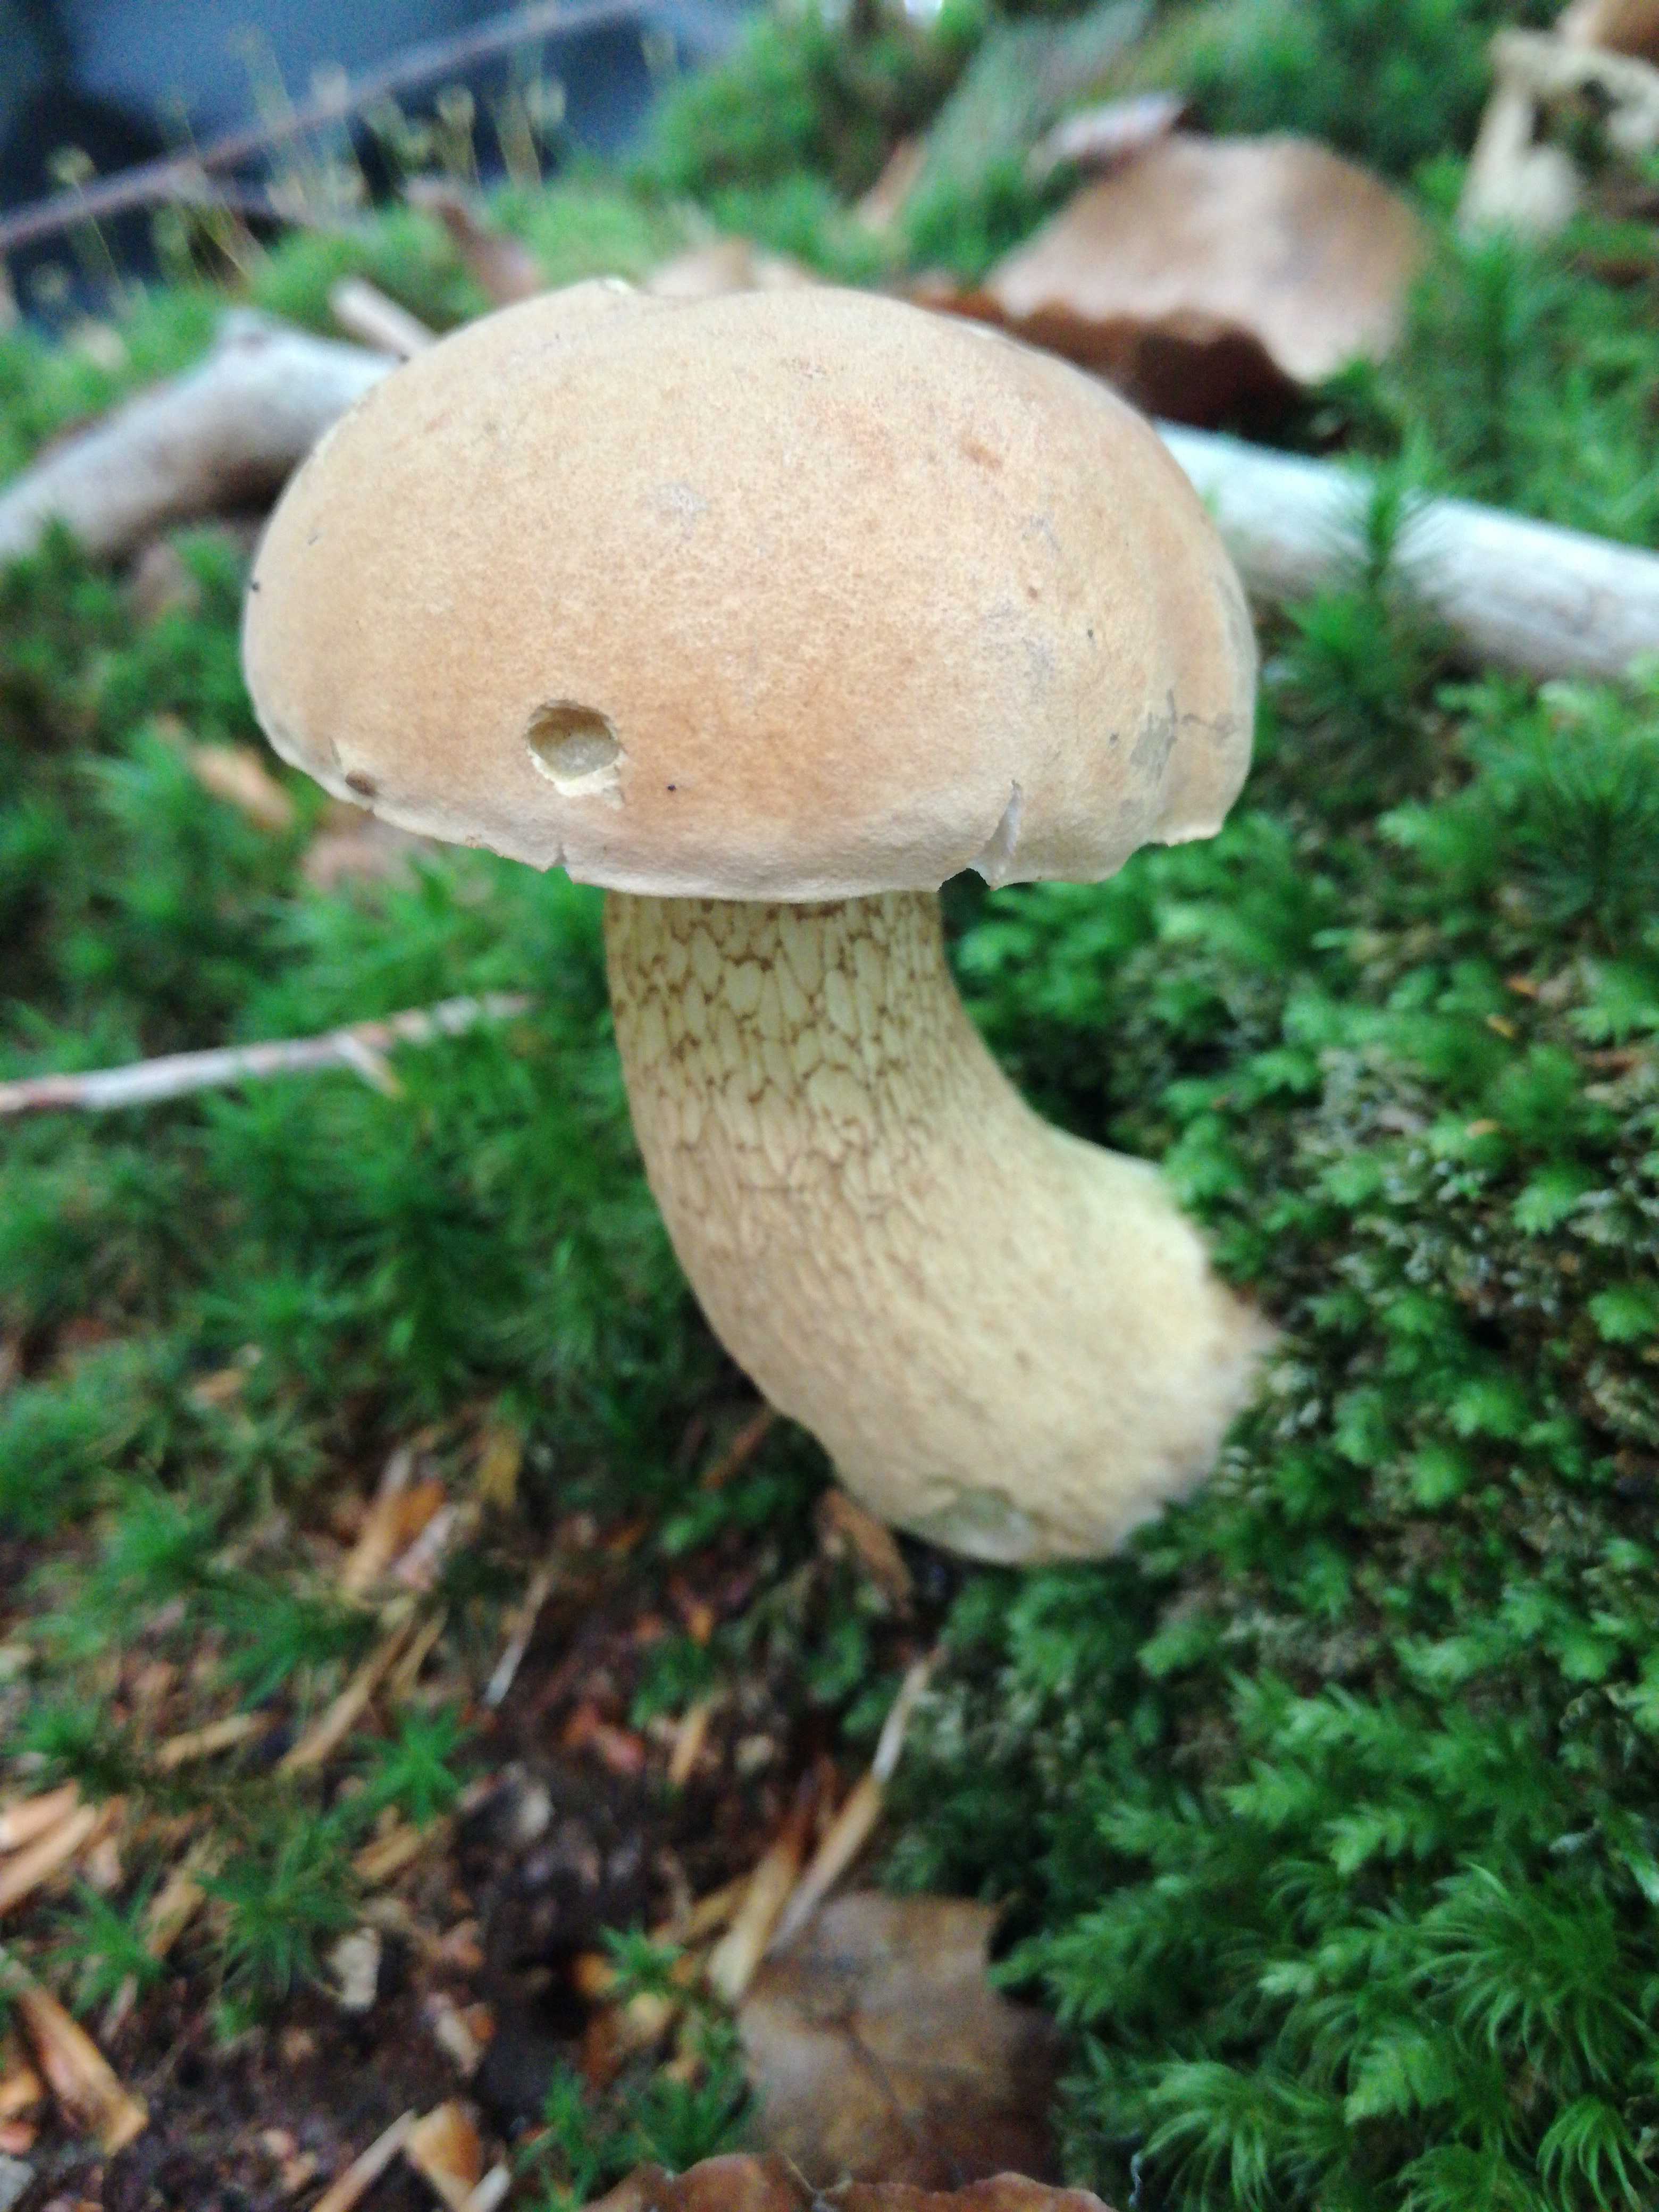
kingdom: Fungi
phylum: Basidiomycota
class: Agaricomycetes
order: Boletales
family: Boletaceae
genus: Tylopilus
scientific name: Tylopilus felleus
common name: galderørhat
